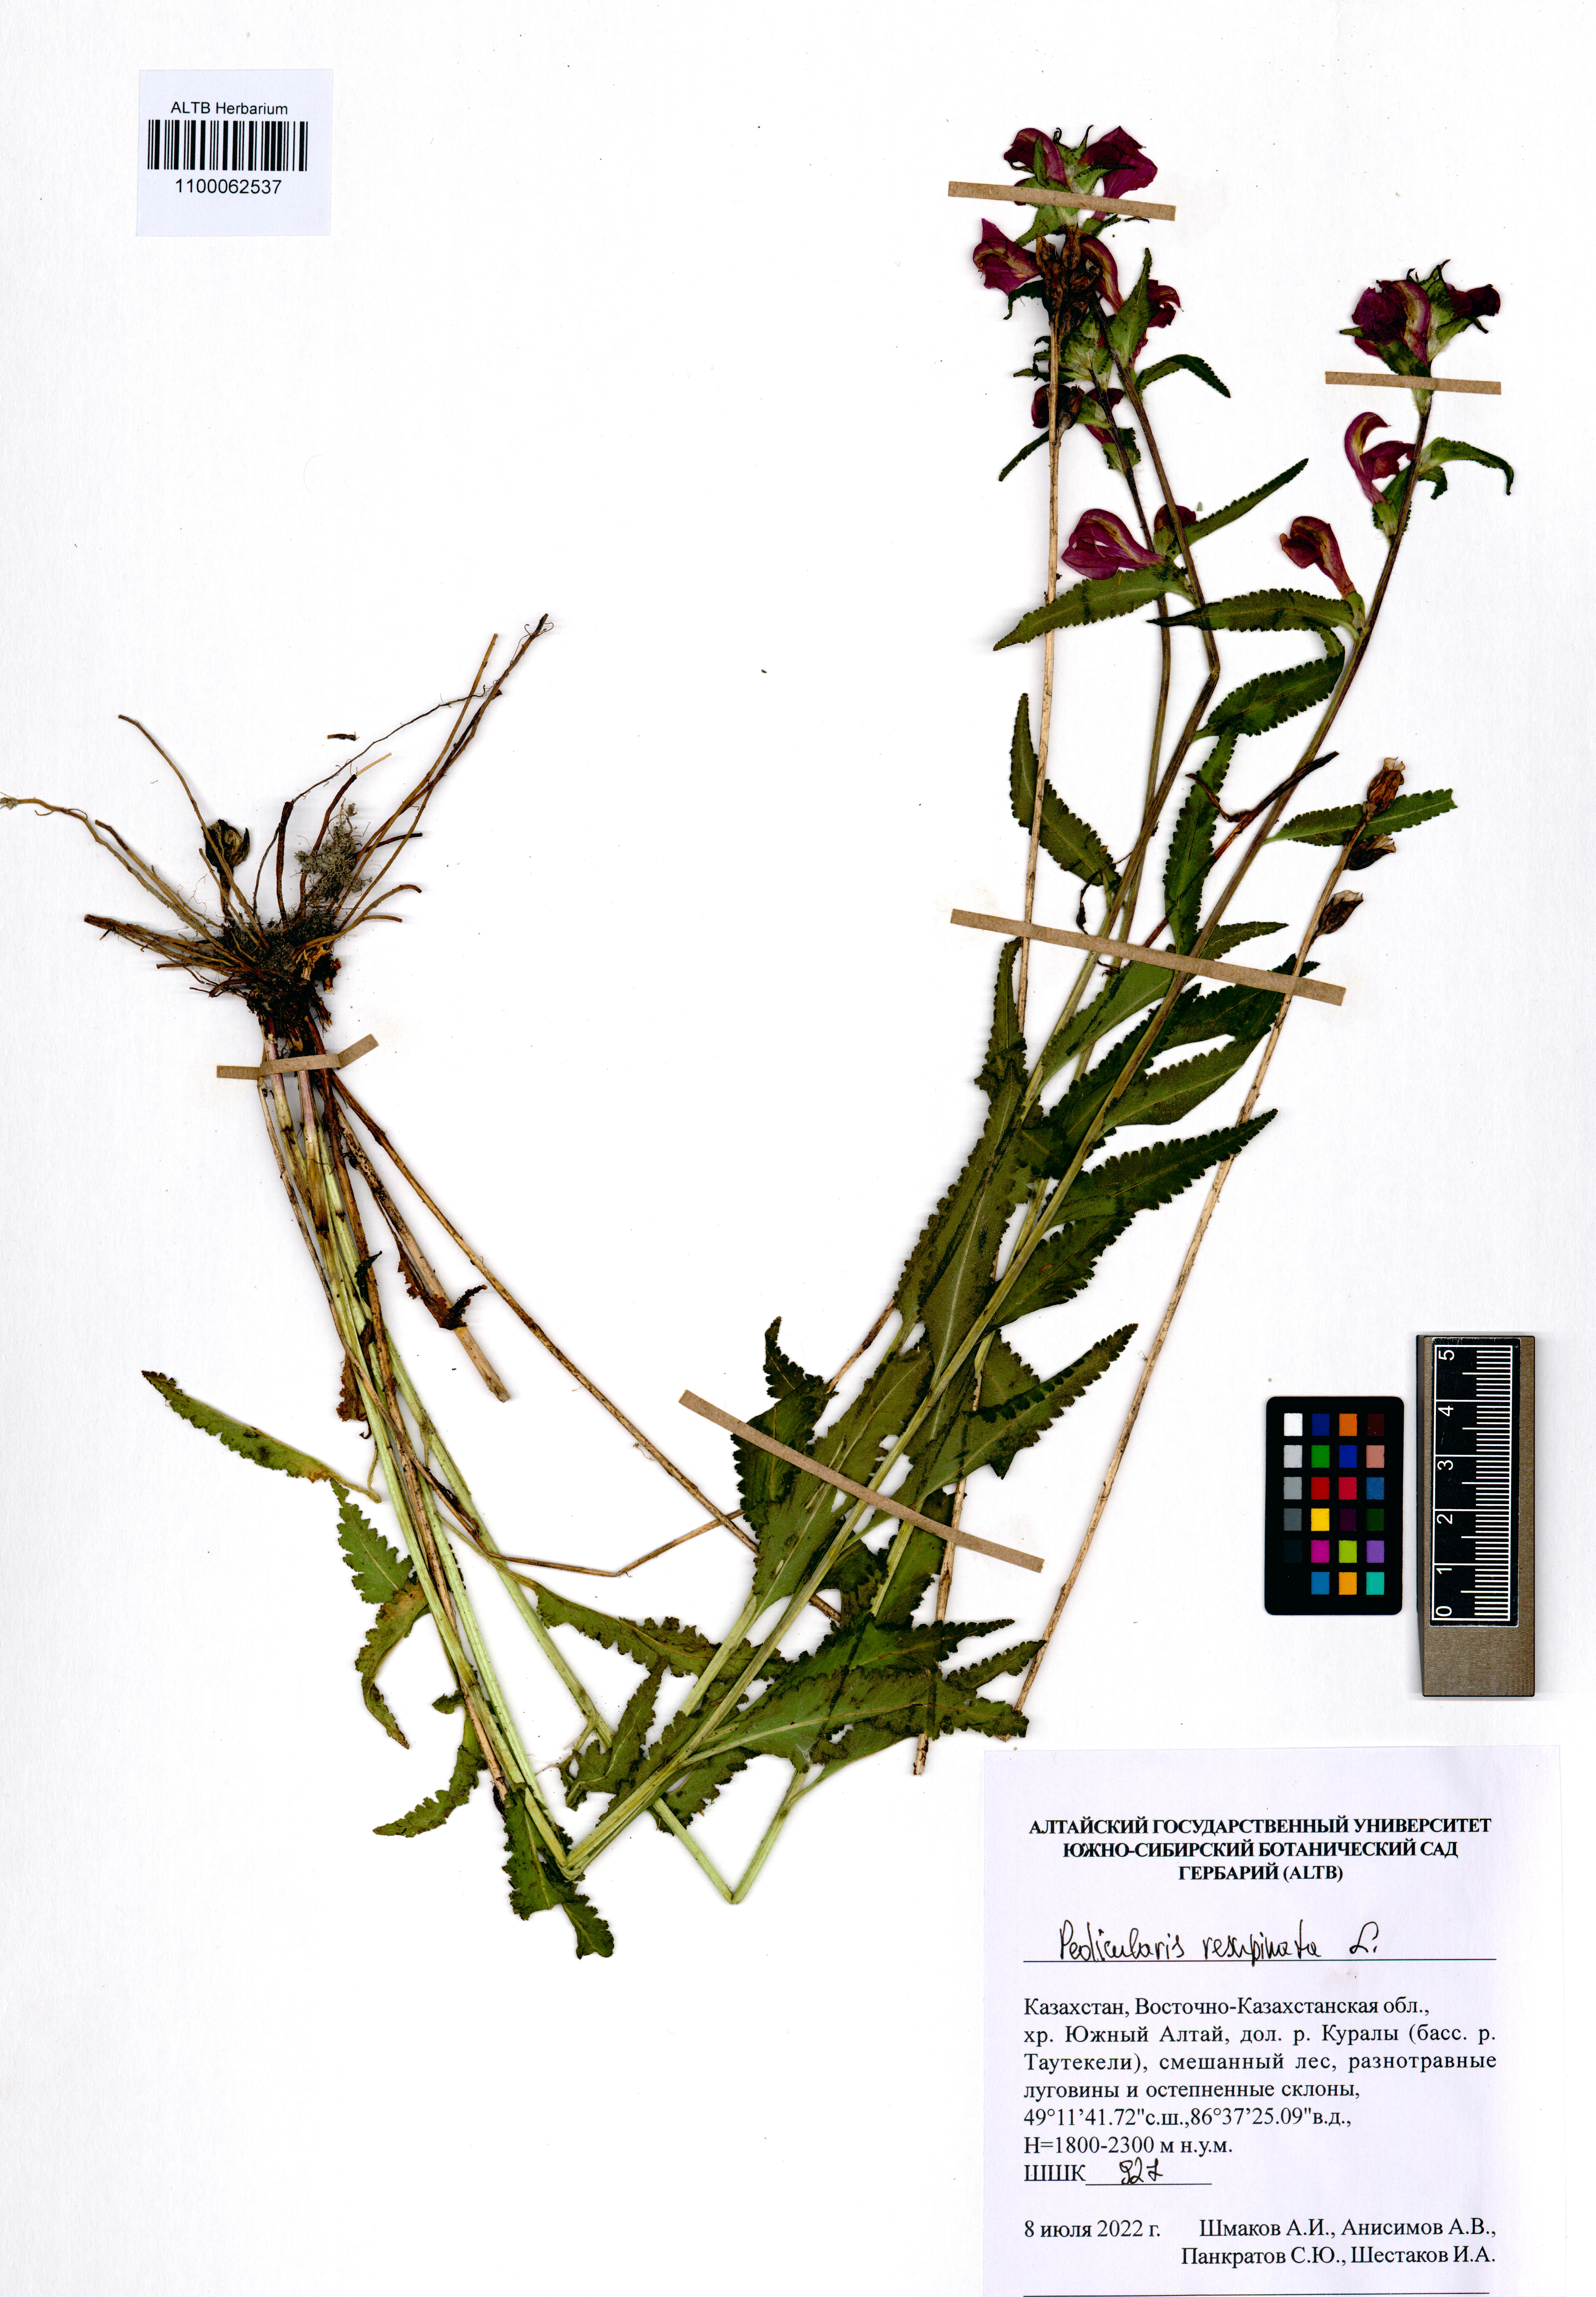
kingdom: Plantae
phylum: Tracheophyta
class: Magnoliopsida
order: Lamiales
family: Orobanchaceae
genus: Pedicularis
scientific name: Pedicularis resupinata
